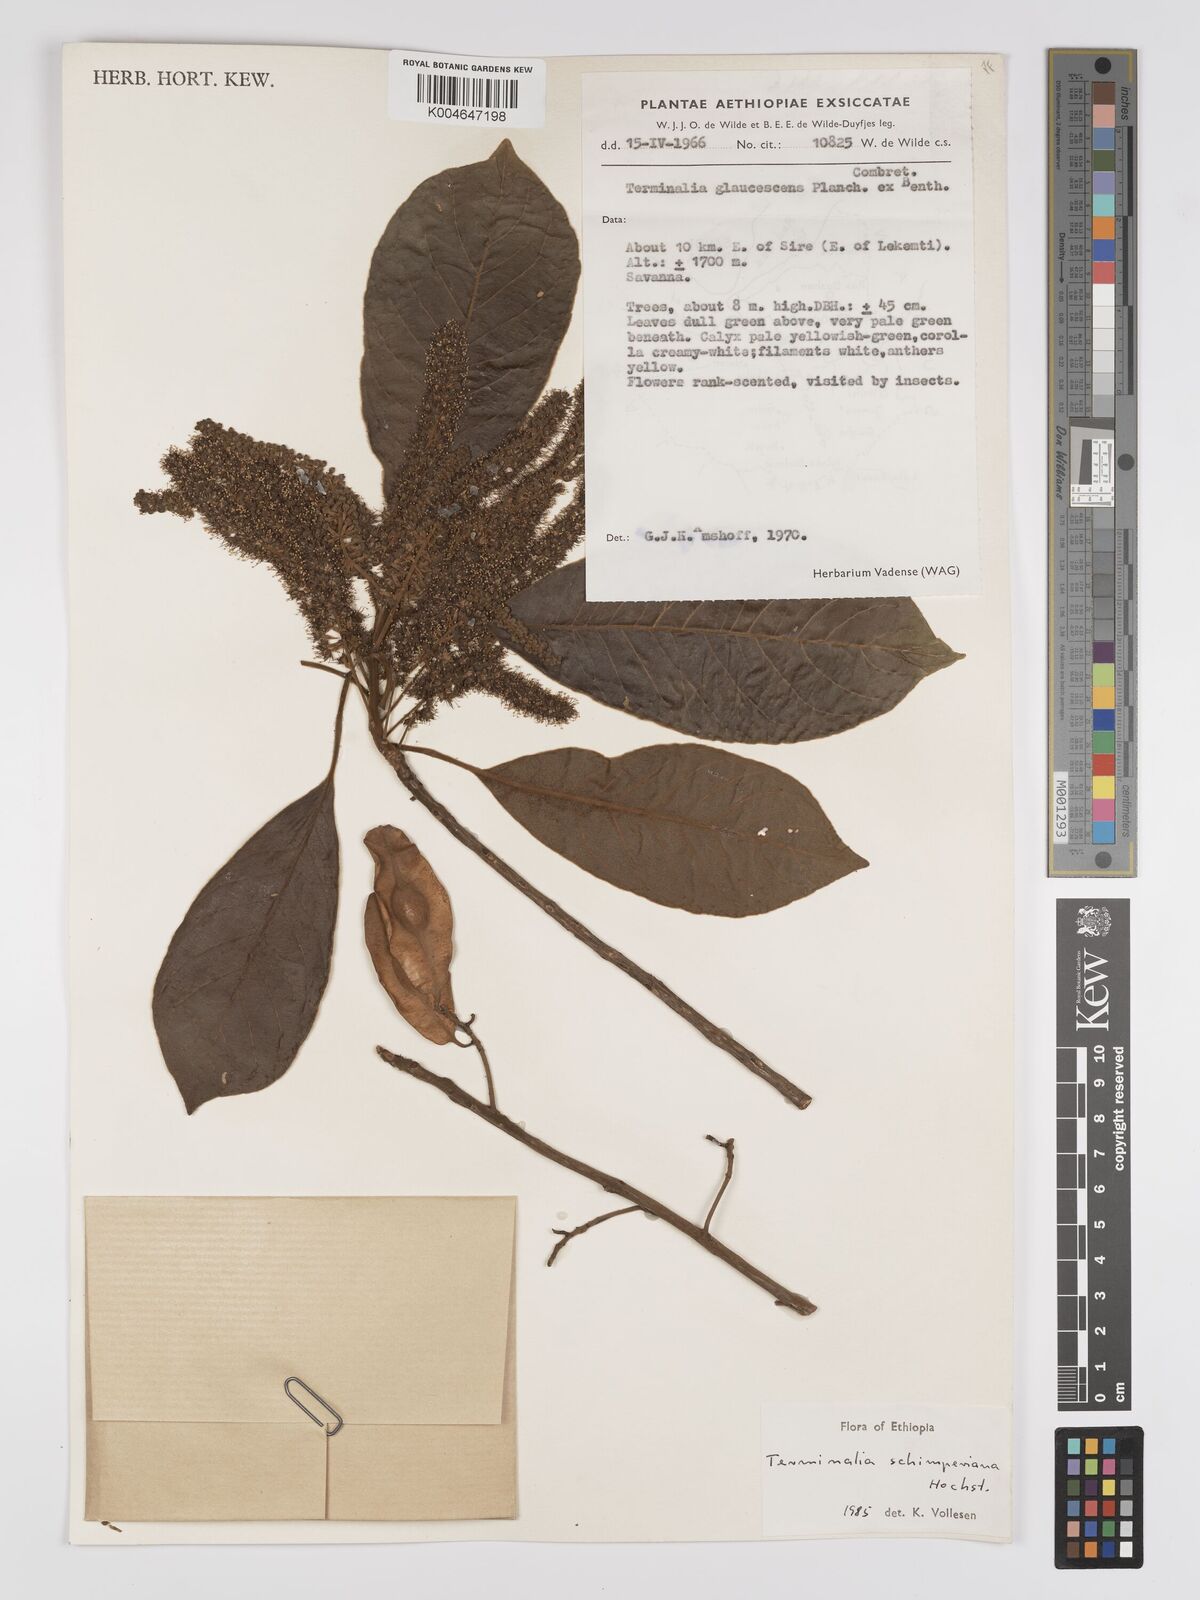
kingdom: Plantae
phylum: Tracheophyta
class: Magnoliopsida
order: Myrtales
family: Combretaceae
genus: Terminalia
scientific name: Terminalia schimperiana
